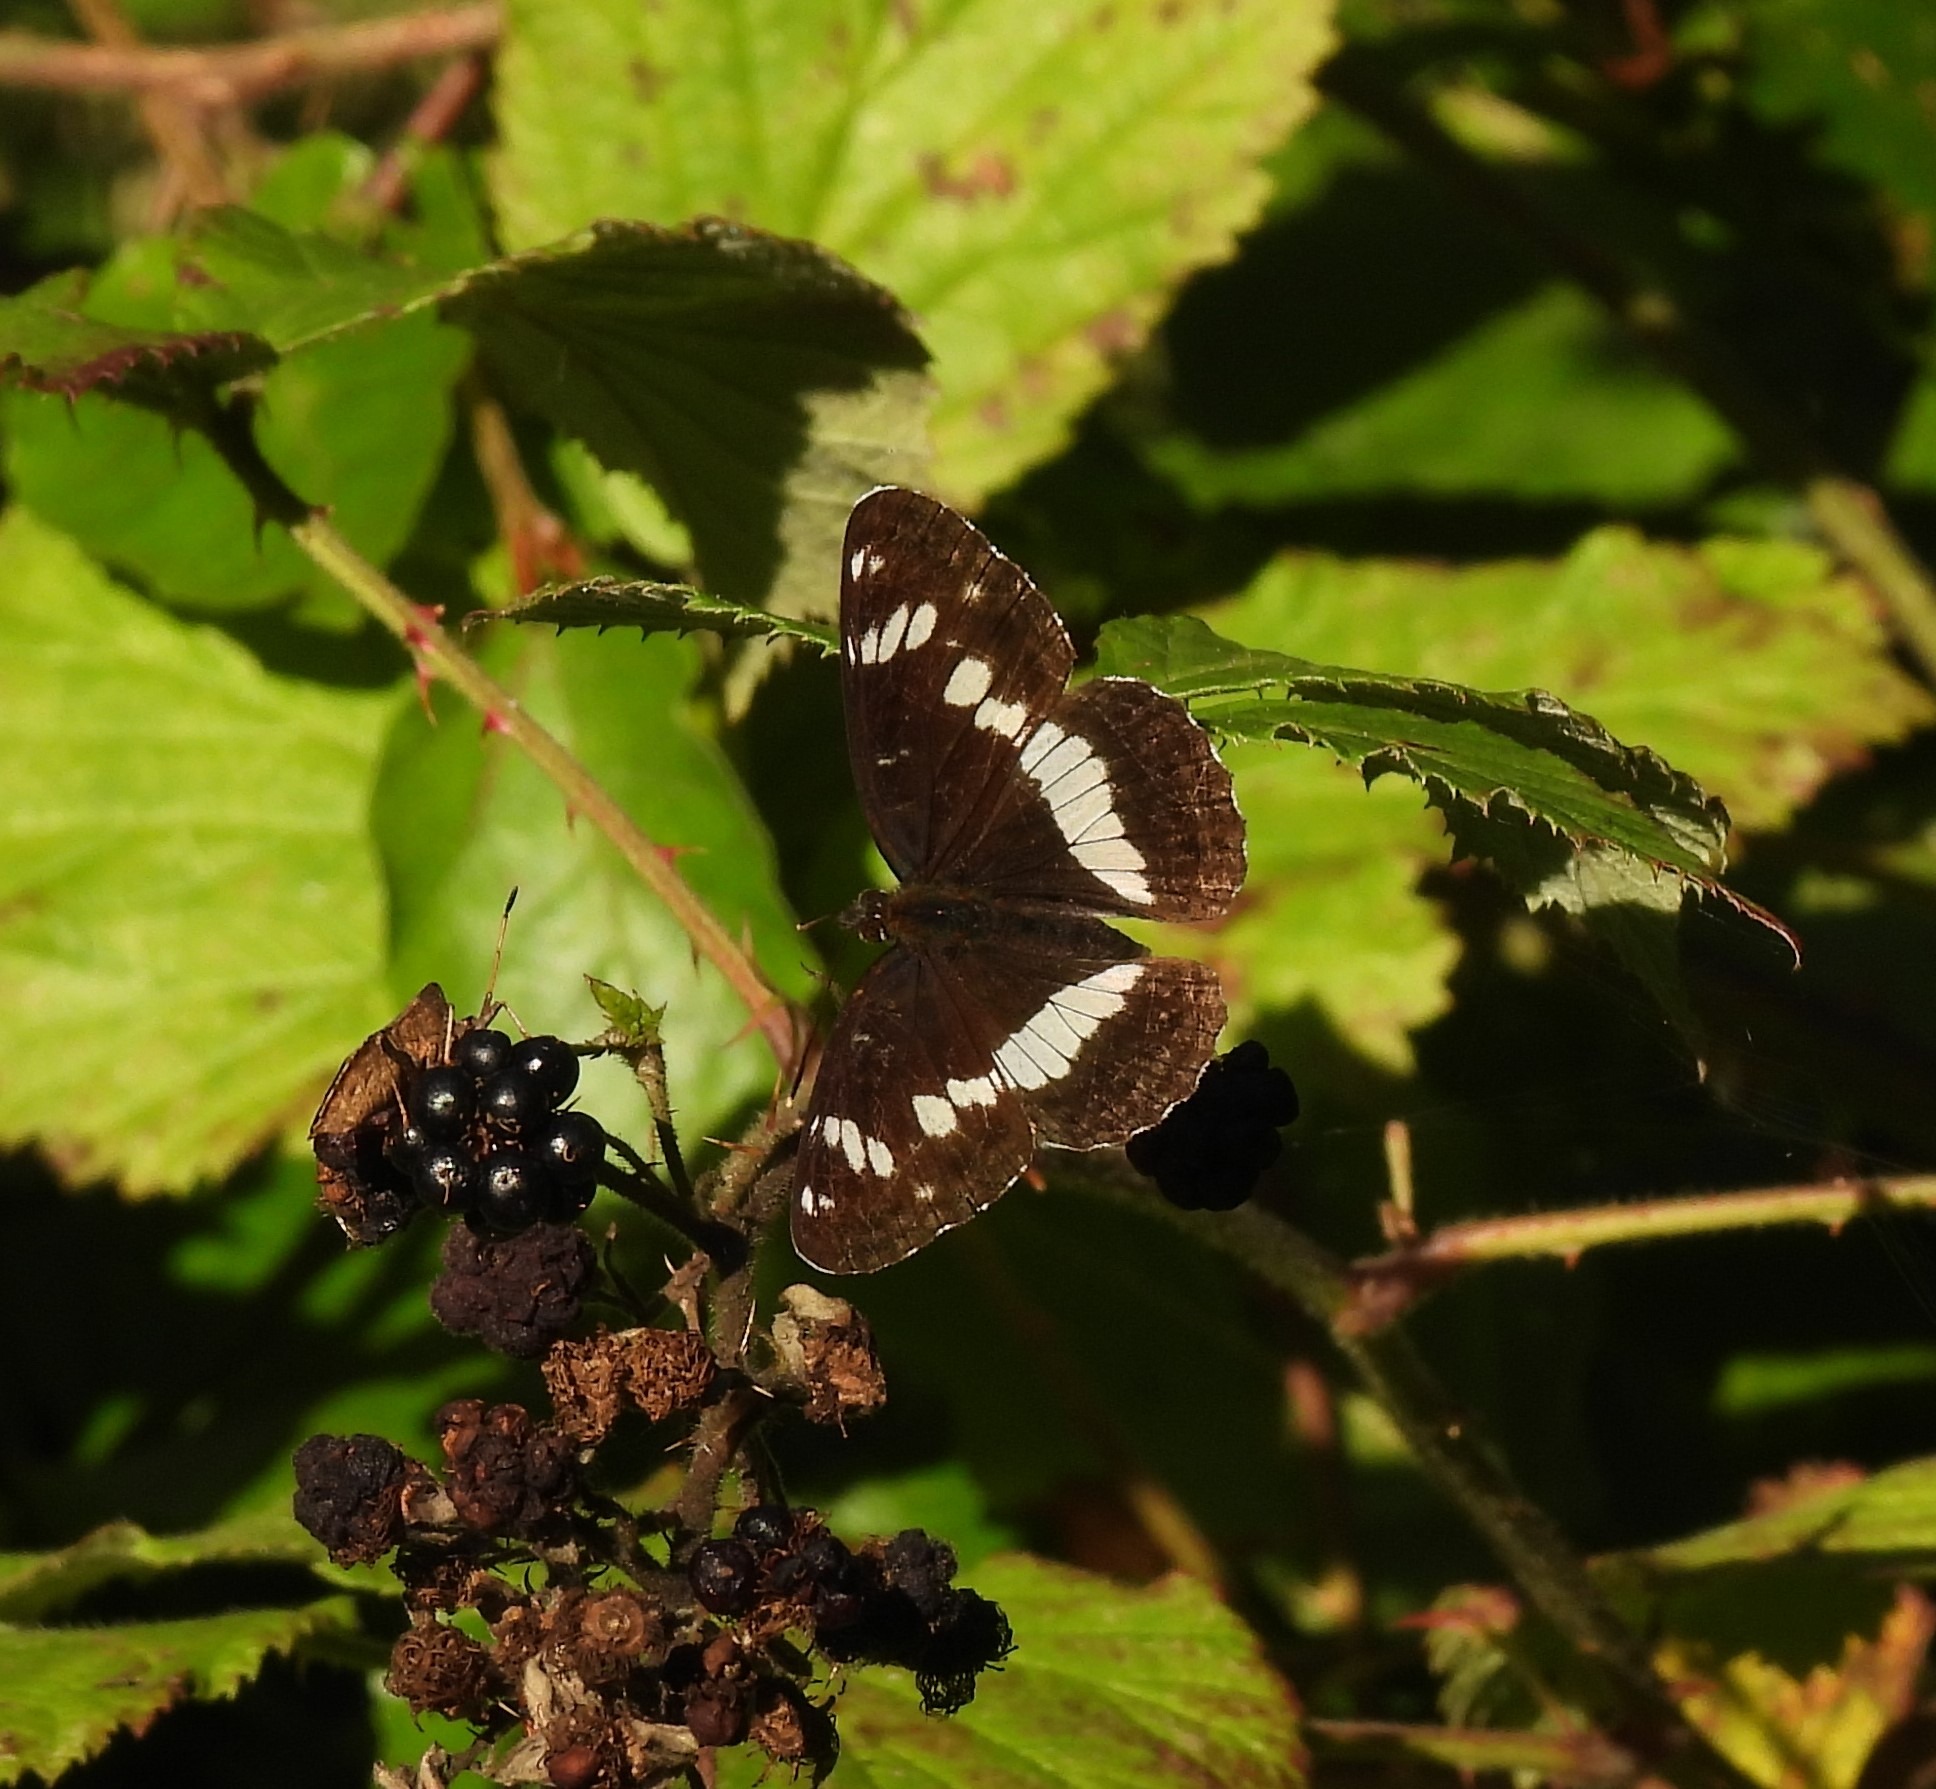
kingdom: Animalia
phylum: Arthropoda
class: Insecta
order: Lepidoptera
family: Nymphalidae
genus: Ladoga
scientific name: Ladoga camilla
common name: Hvid admiral
